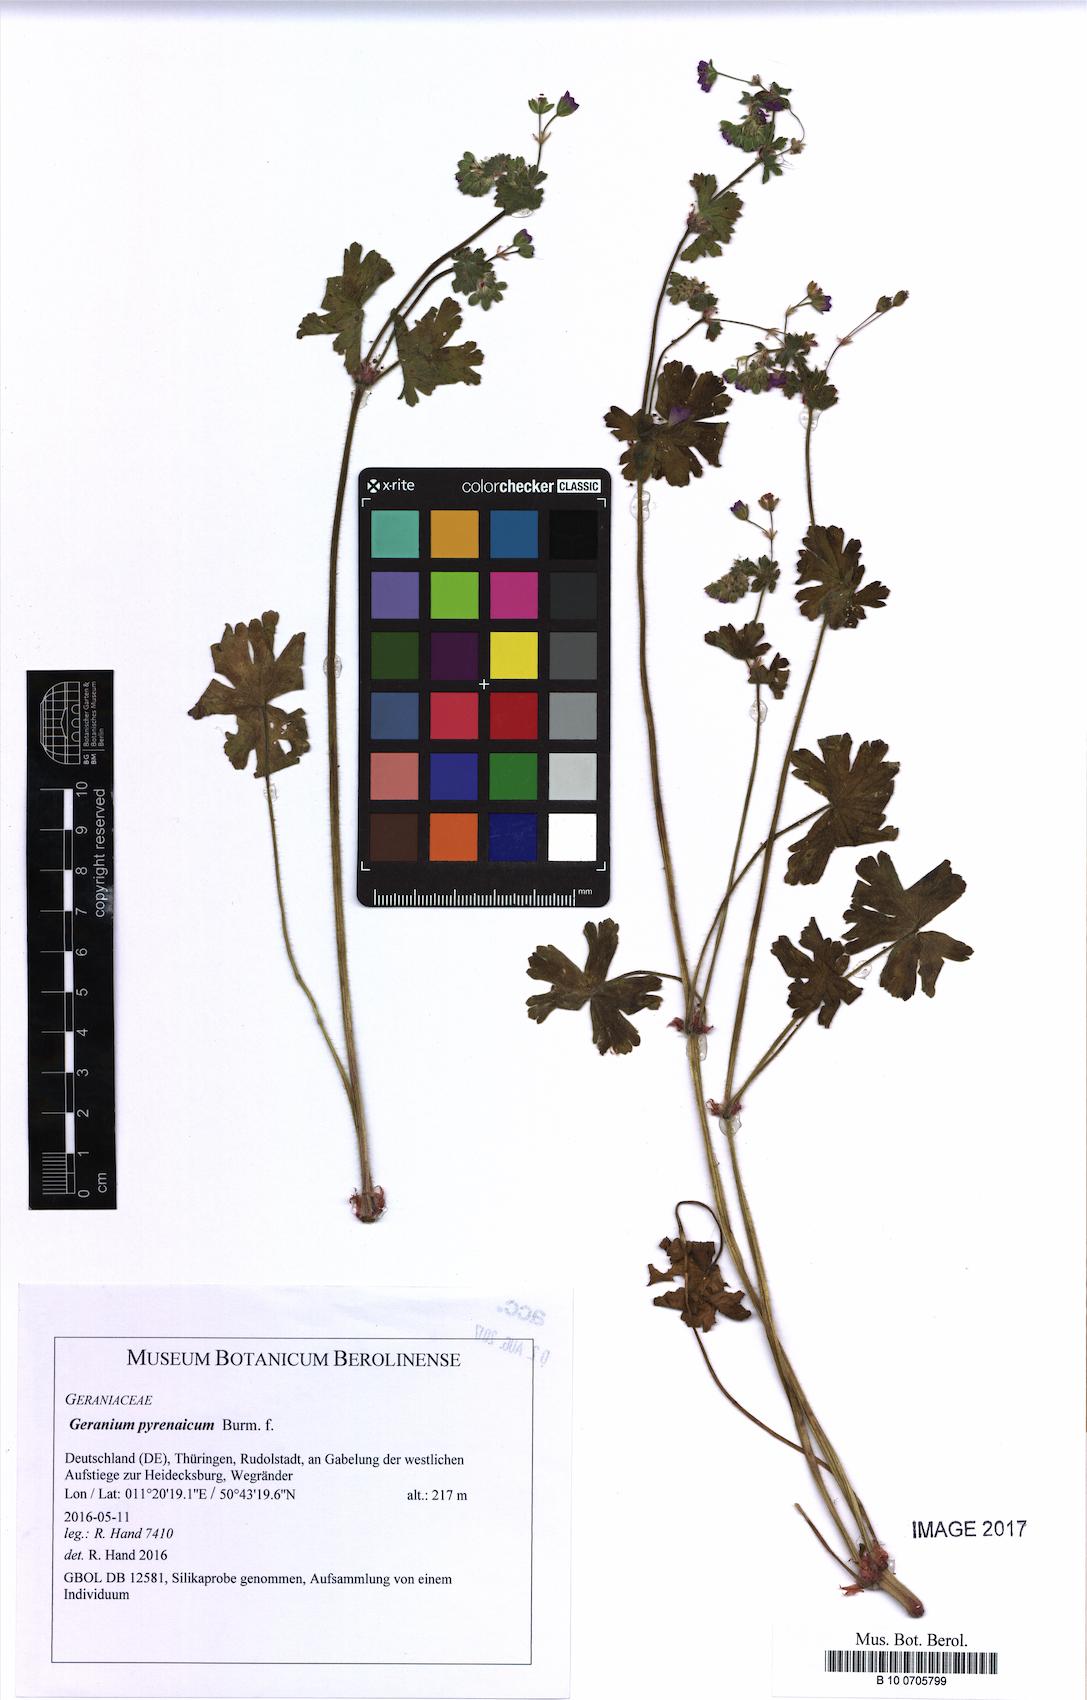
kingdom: Plantae
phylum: Tracheophyta
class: Magnoliopsida
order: Geraniales
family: Geraniaceae
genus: Geranium
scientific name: Geranium pyrenaicum
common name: Hedgerow crane's-bill
